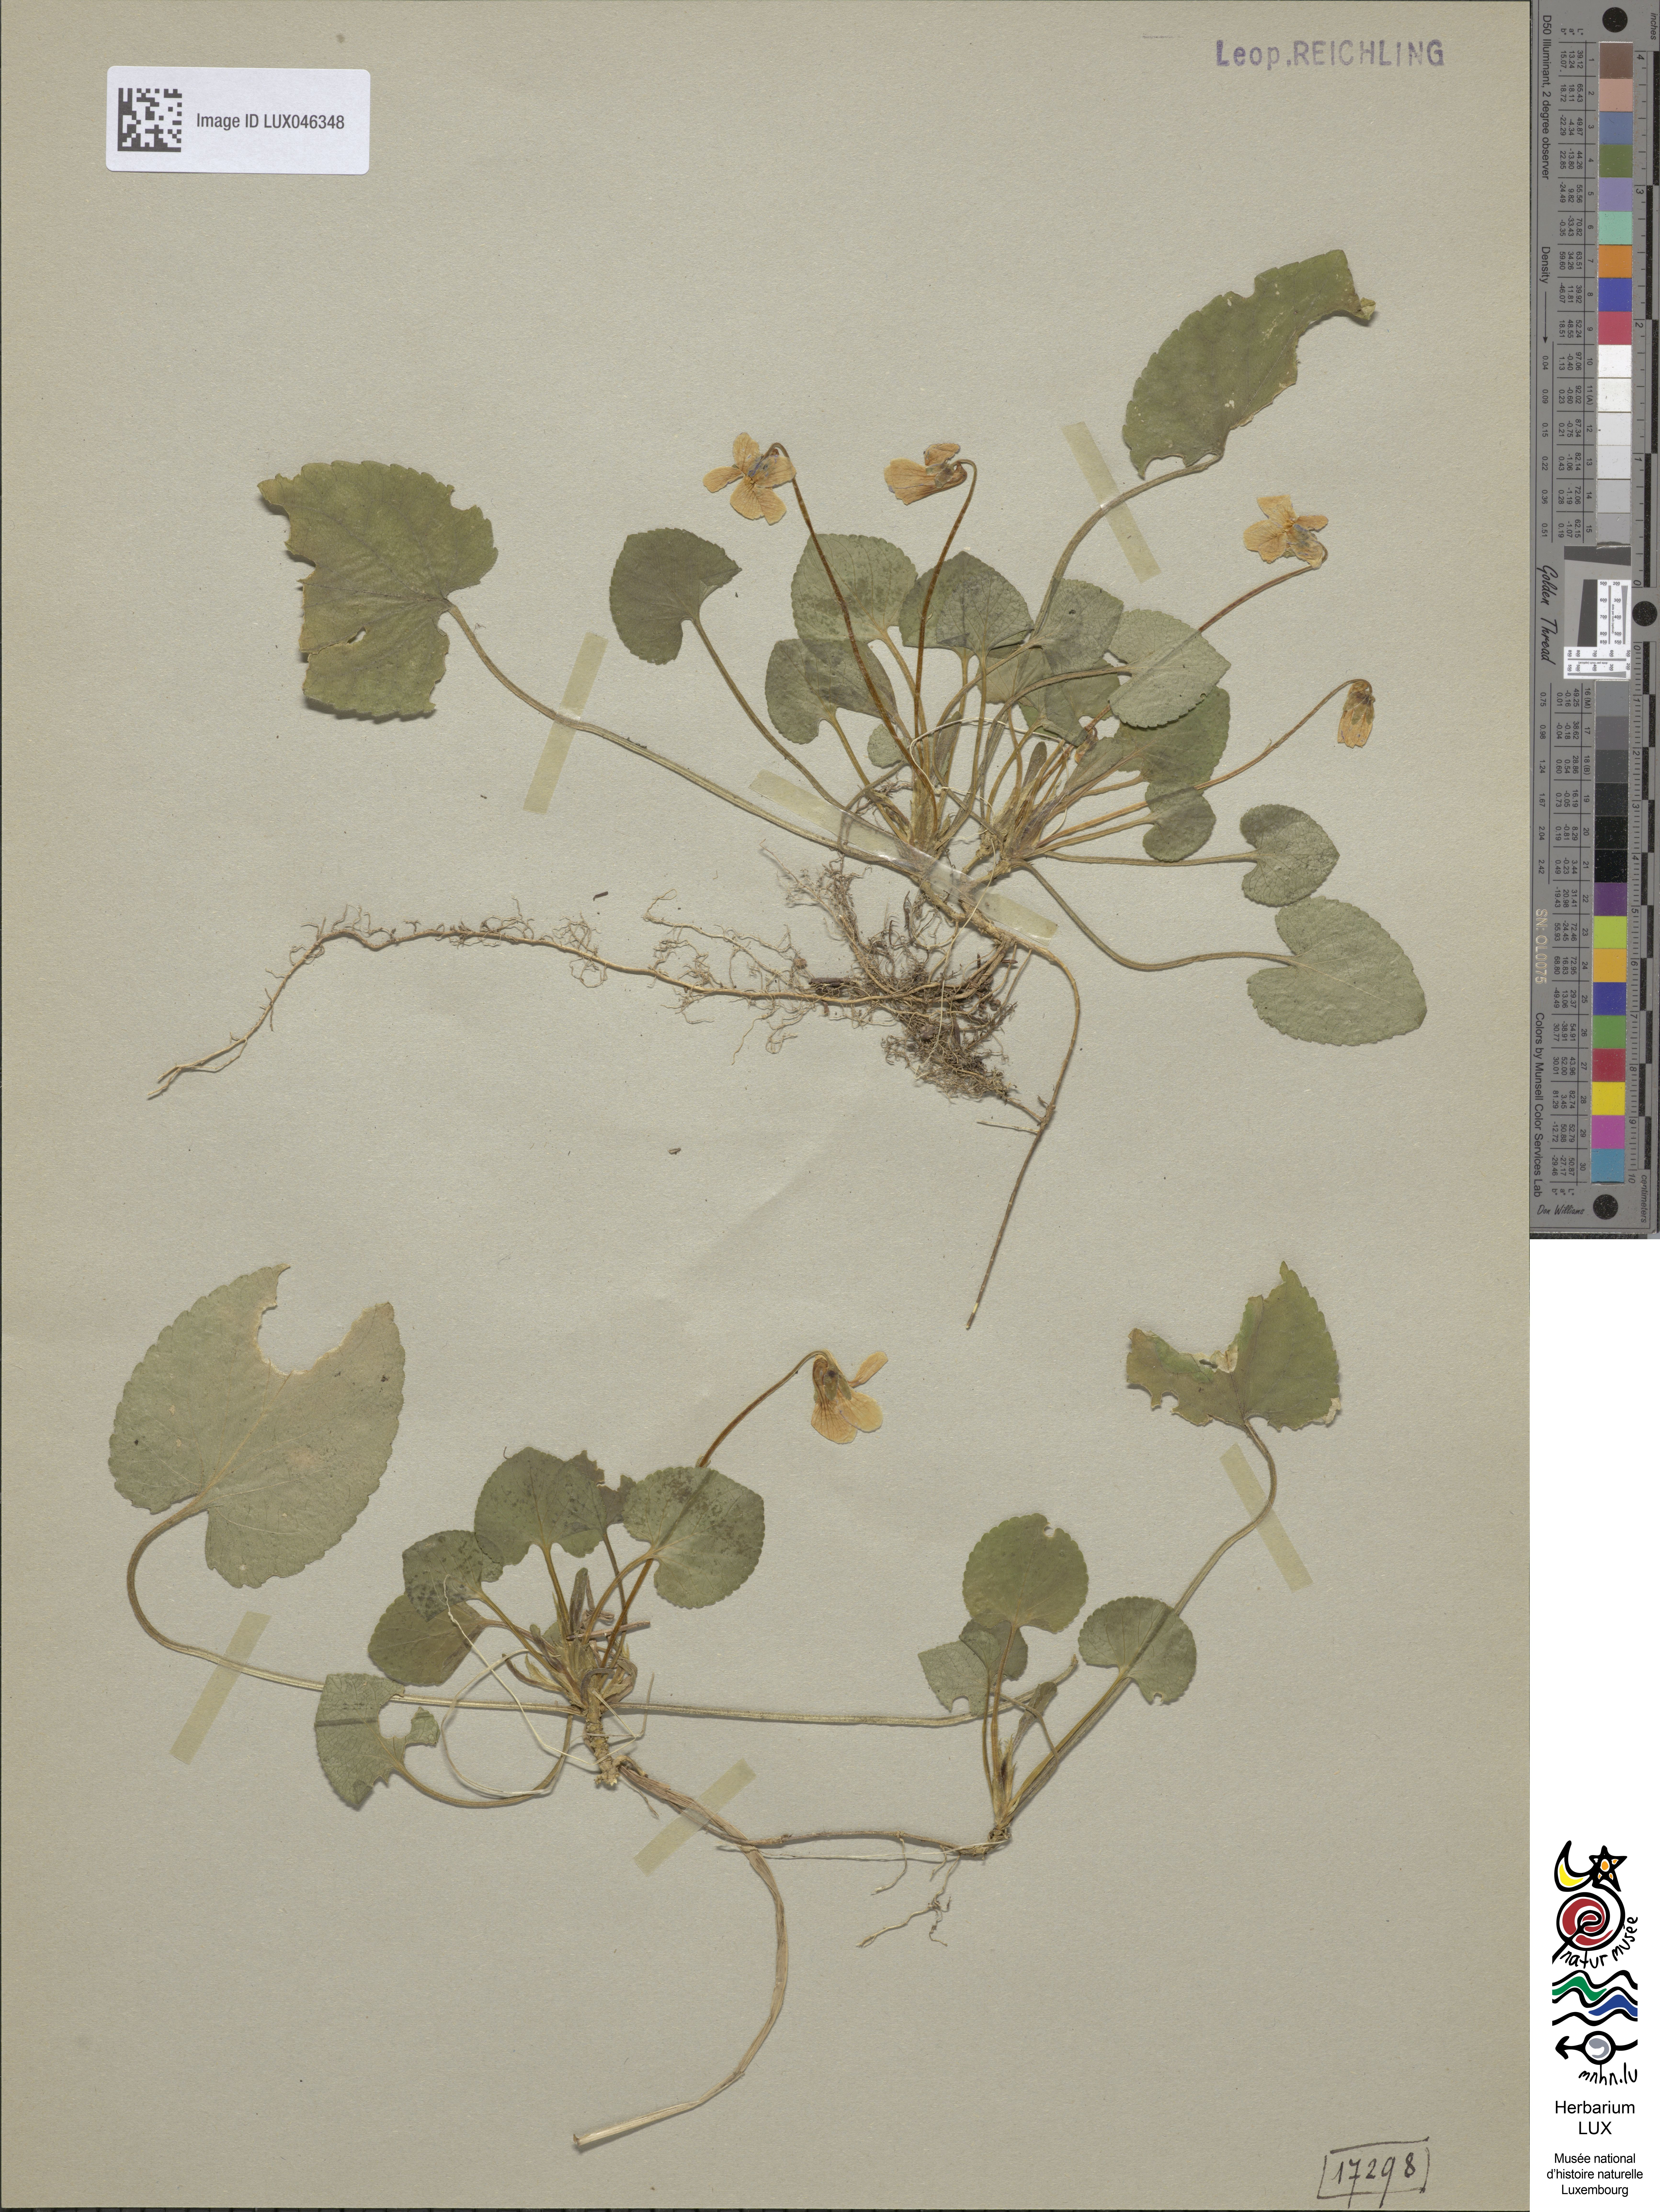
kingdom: Plantae
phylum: Tracheophyta
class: Magnoliopsida
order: Malpighiales
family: Violaceae
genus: Viola
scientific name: Viola odorata
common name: Sweet violet
